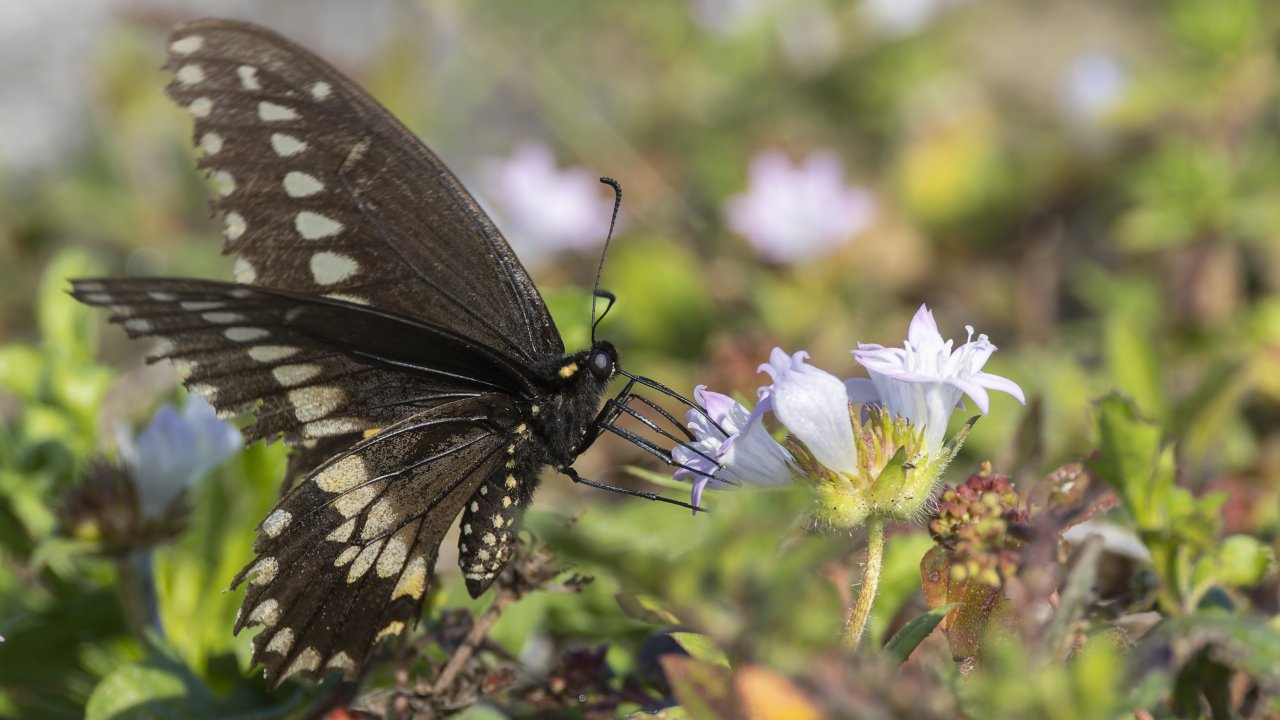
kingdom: Animalia
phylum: Arthropoda
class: Insecta
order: Lepidoptera
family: Papilionidae
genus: Papilio
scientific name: Papilio polyxenes
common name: Black Swallowtail
